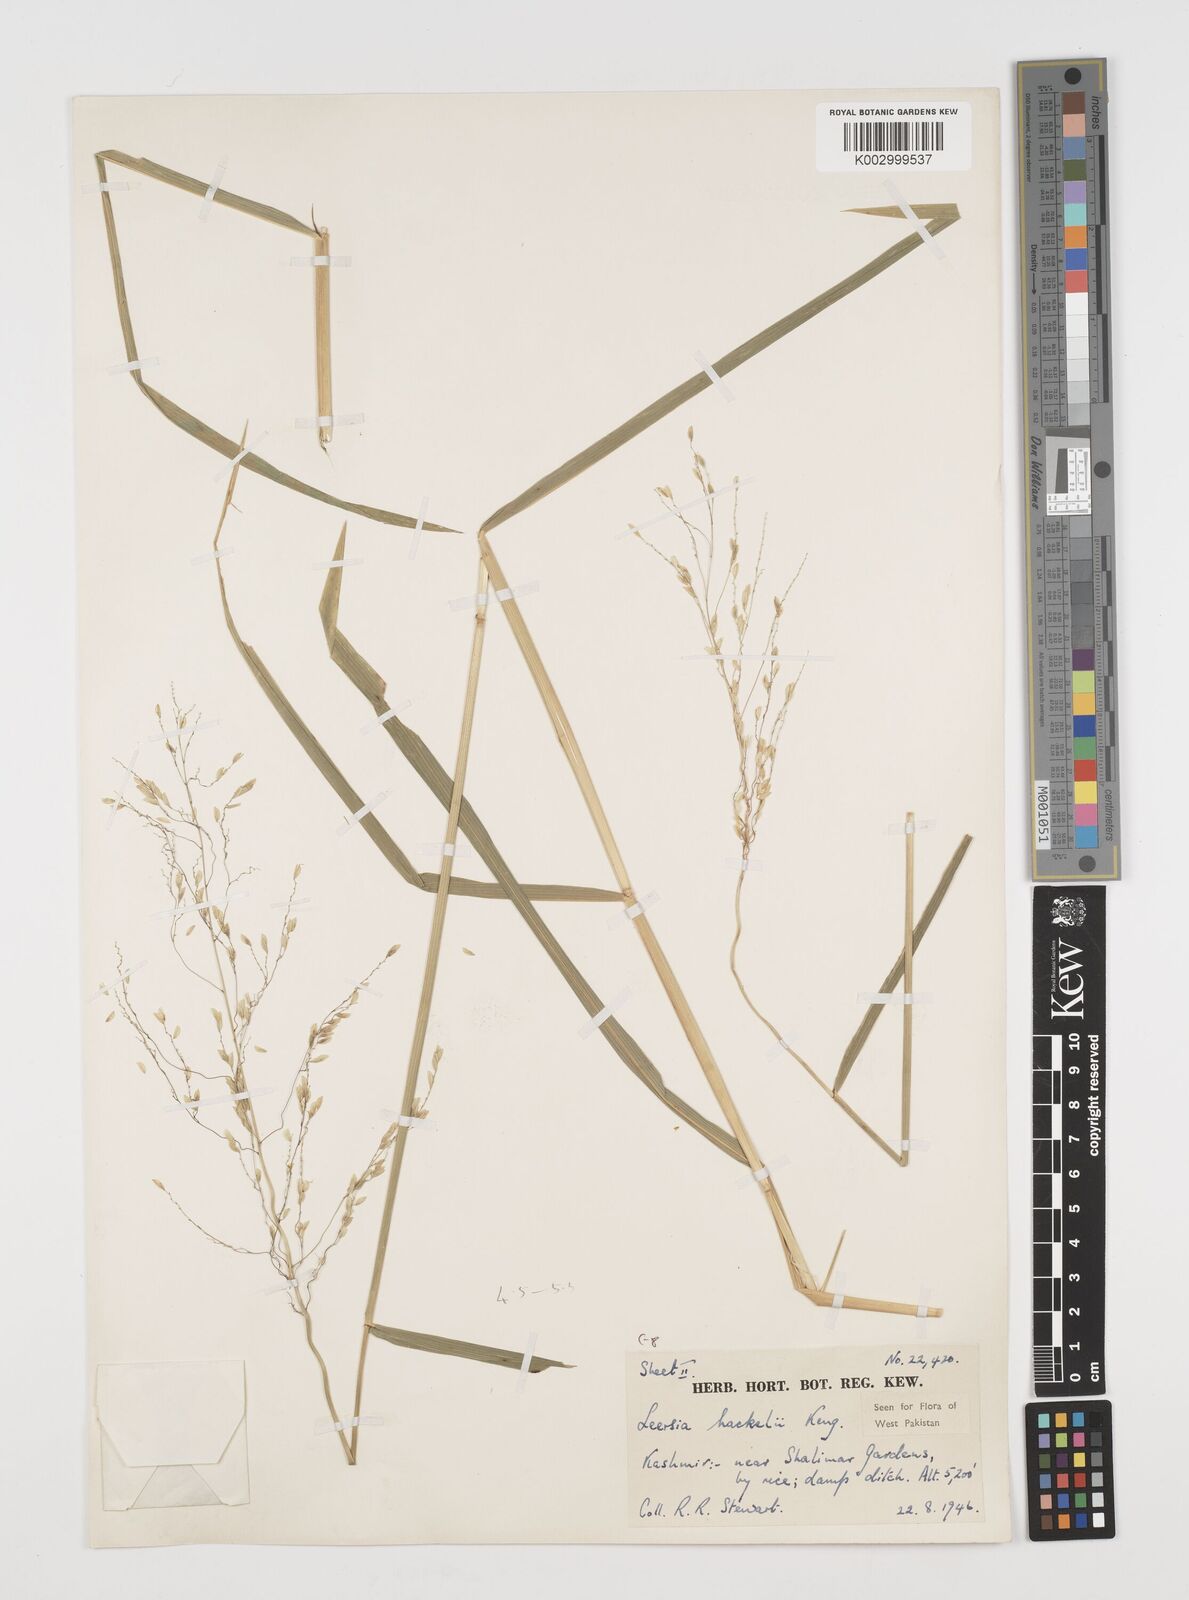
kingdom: Plantae
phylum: Tracheophyta
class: Liliopsida
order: Poales
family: Poaceae
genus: Leersia
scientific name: Leersia oryzoides
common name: Cut-grass
